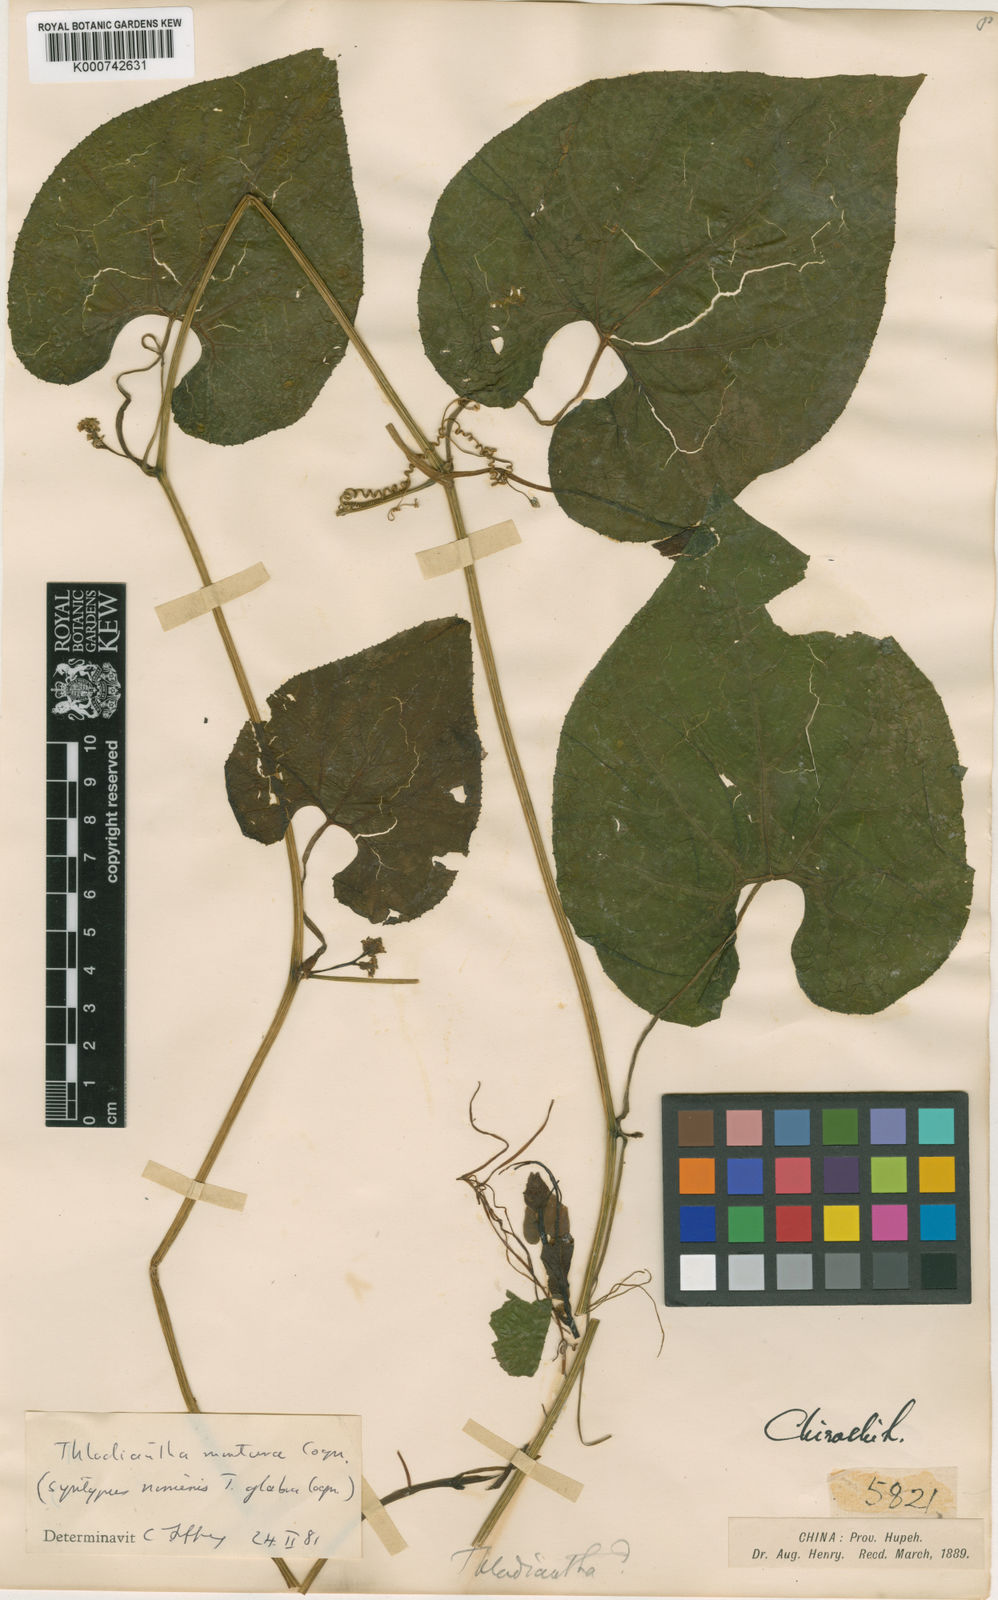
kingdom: Plantae
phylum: Tracheophyta
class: Magnoliopsida
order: Cucurbitales
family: Cucurbitaceae
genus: Thladiantha
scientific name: Thladiantha montana
